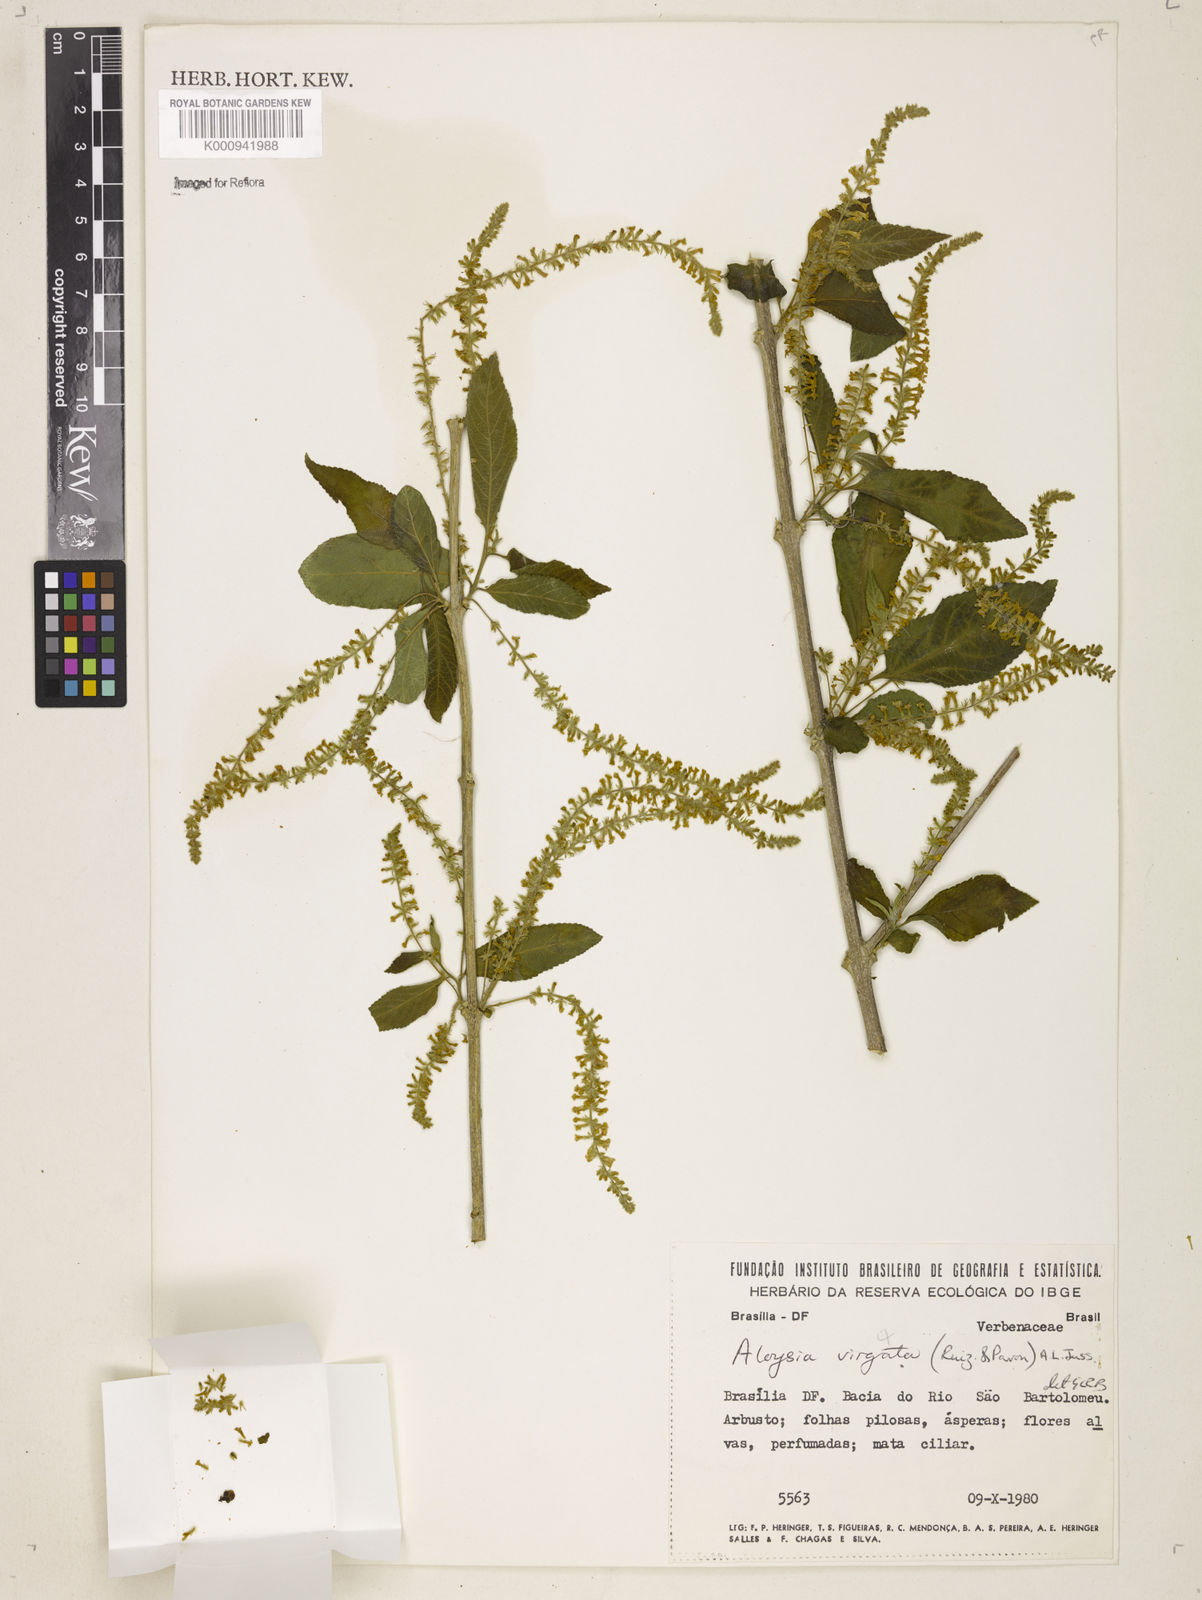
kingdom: Plantae
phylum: Tracheophyta
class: Magnoliopsida
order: Lamiales
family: Verbenaceae
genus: Aloysia
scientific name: Aloysia
